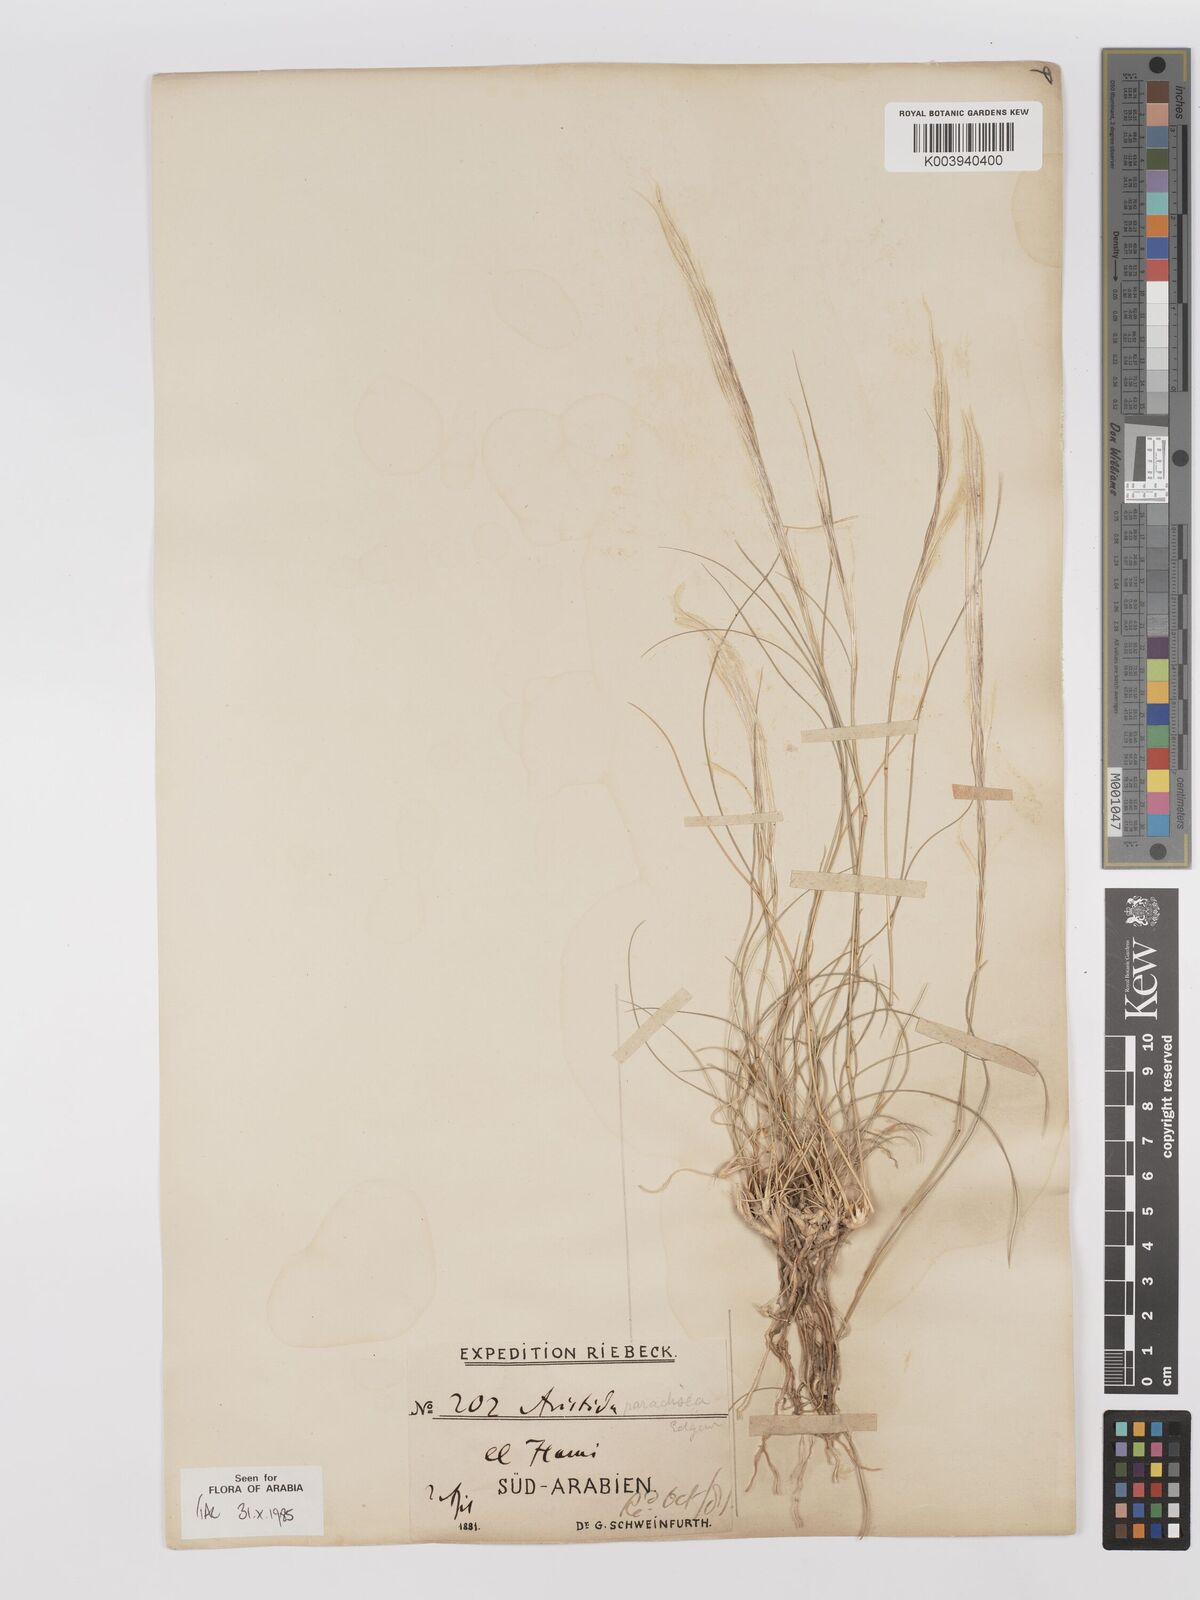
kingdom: Plantae
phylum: Tracheophyta
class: Liliopsida
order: Poales
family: Poaceae
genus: Stipagrostis
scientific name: Stipagrostis paradisea
